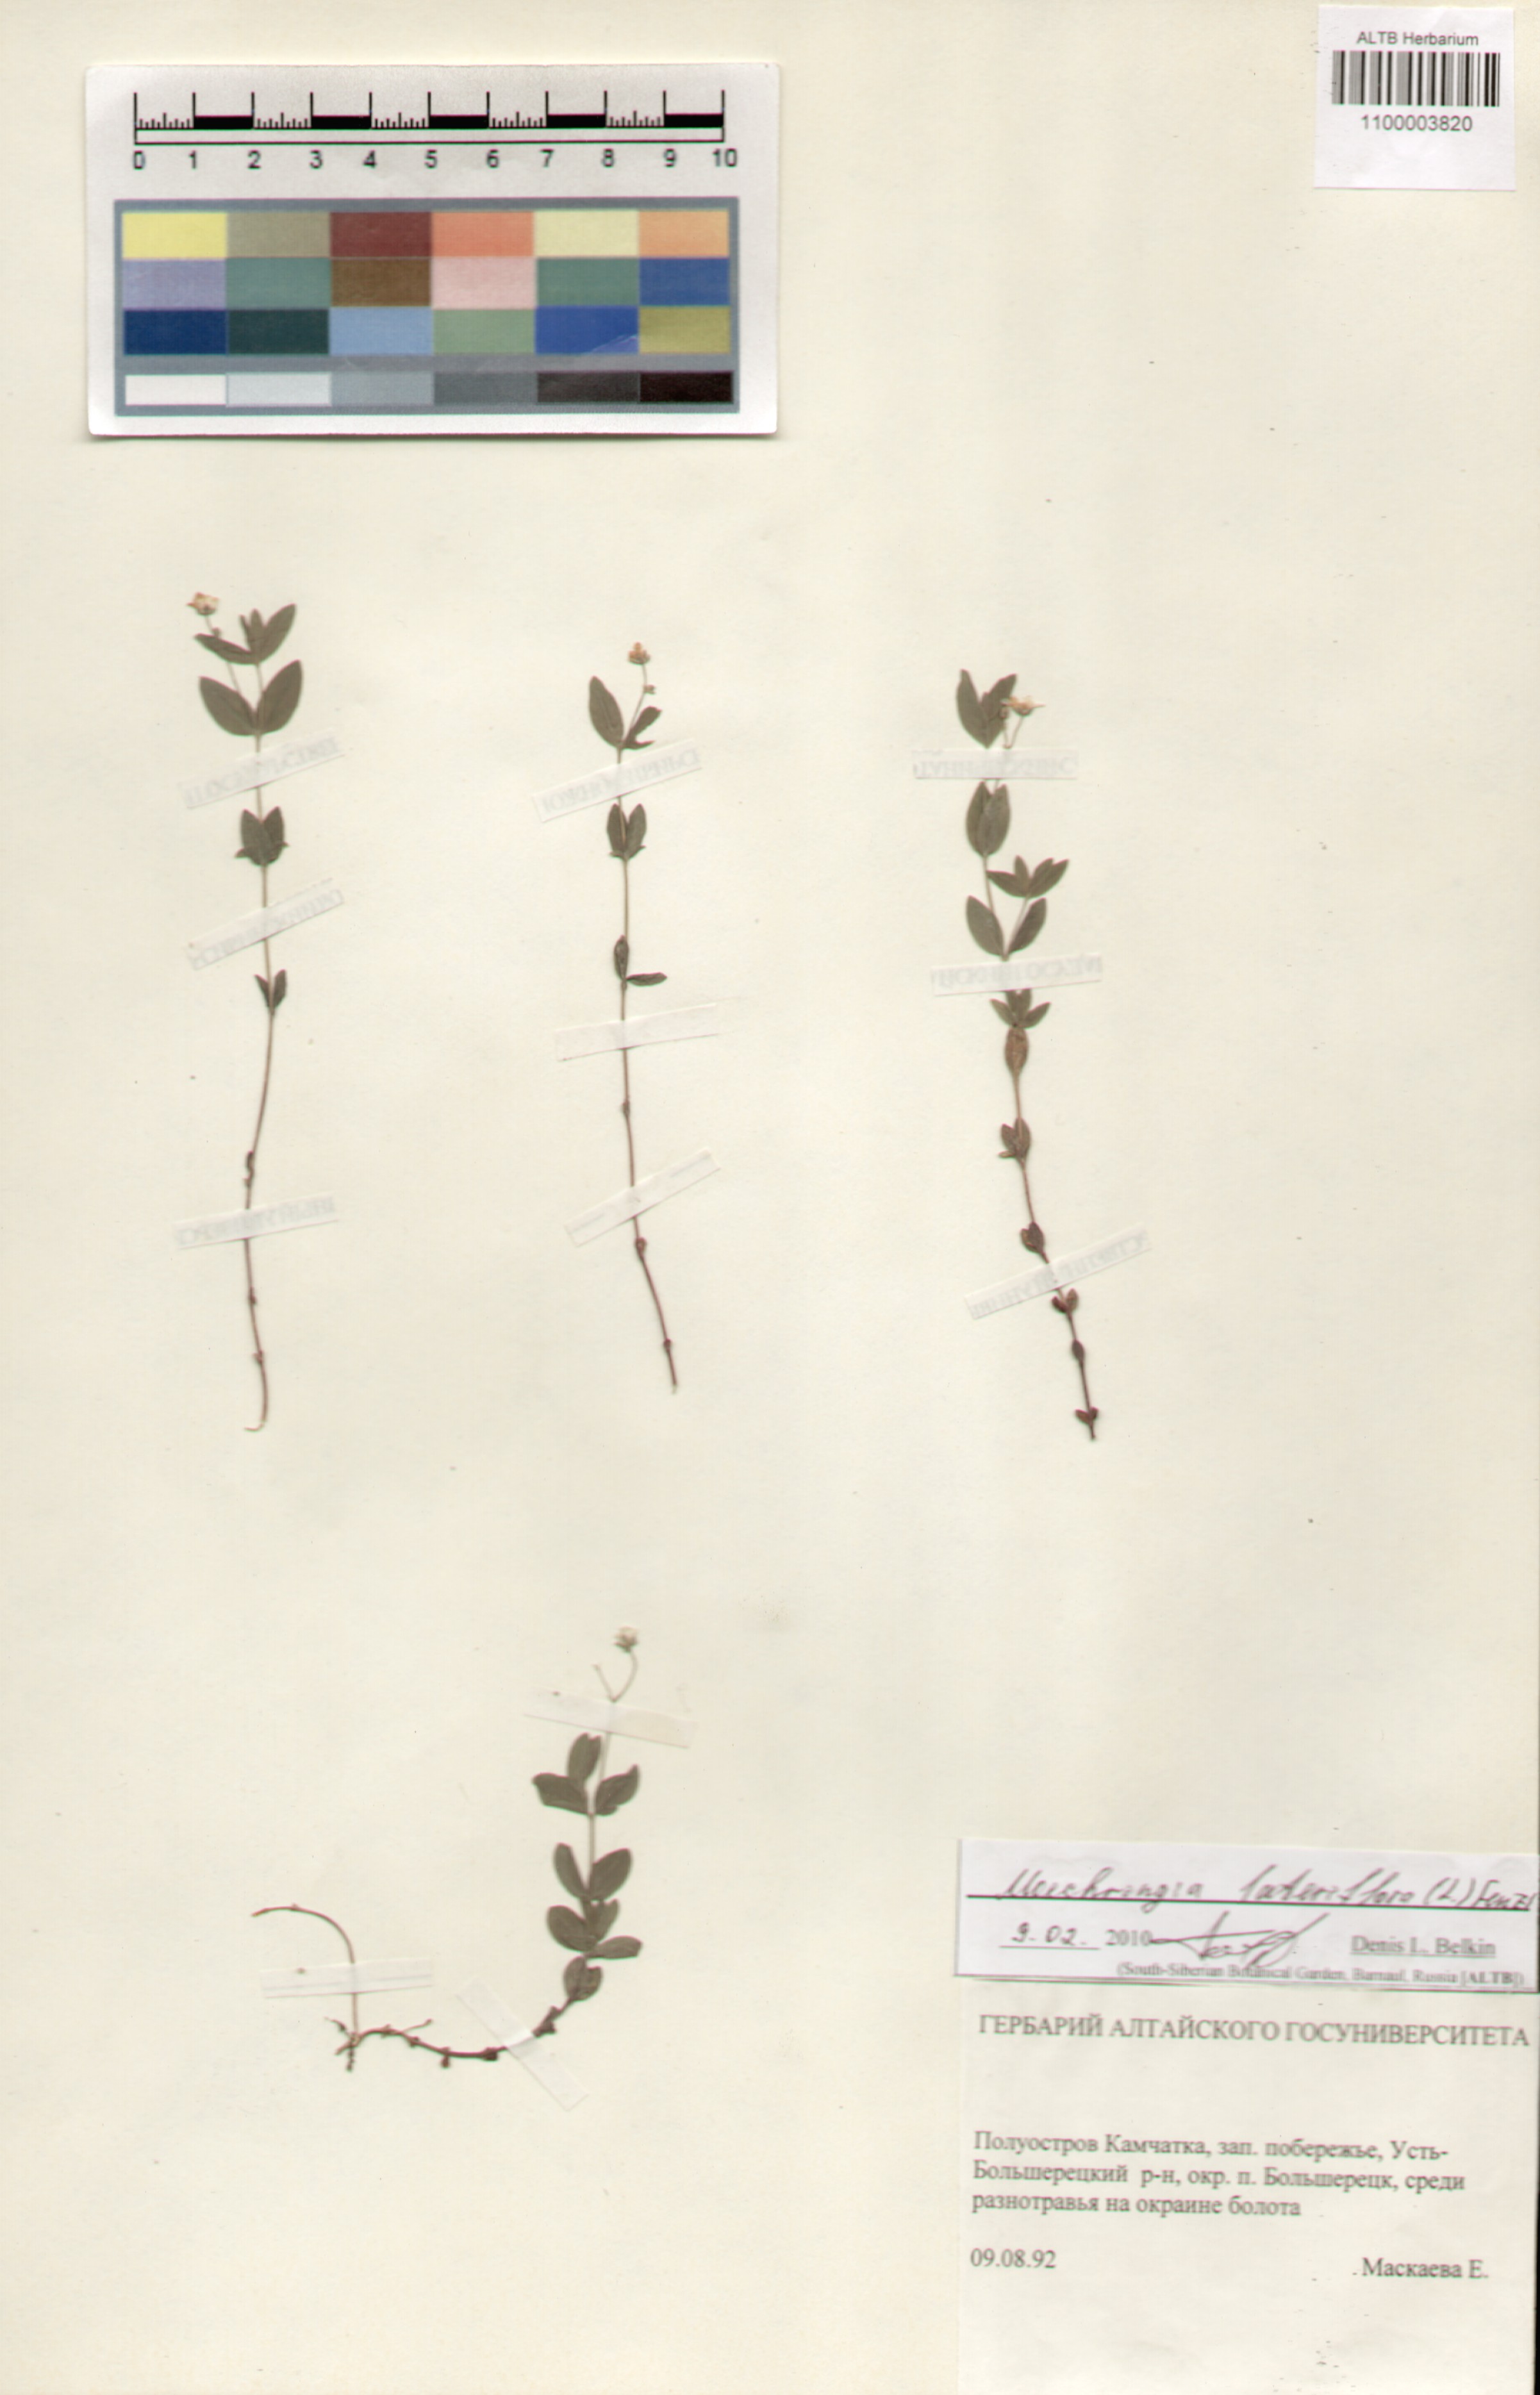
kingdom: Plantae
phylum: Tracheophyta
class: Magnoliopsida
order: Caryophyllales
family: Caryophyllaceae
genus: Moehringia
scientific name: Moehringia lateriflora
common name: Blunt-leaved sandwort
